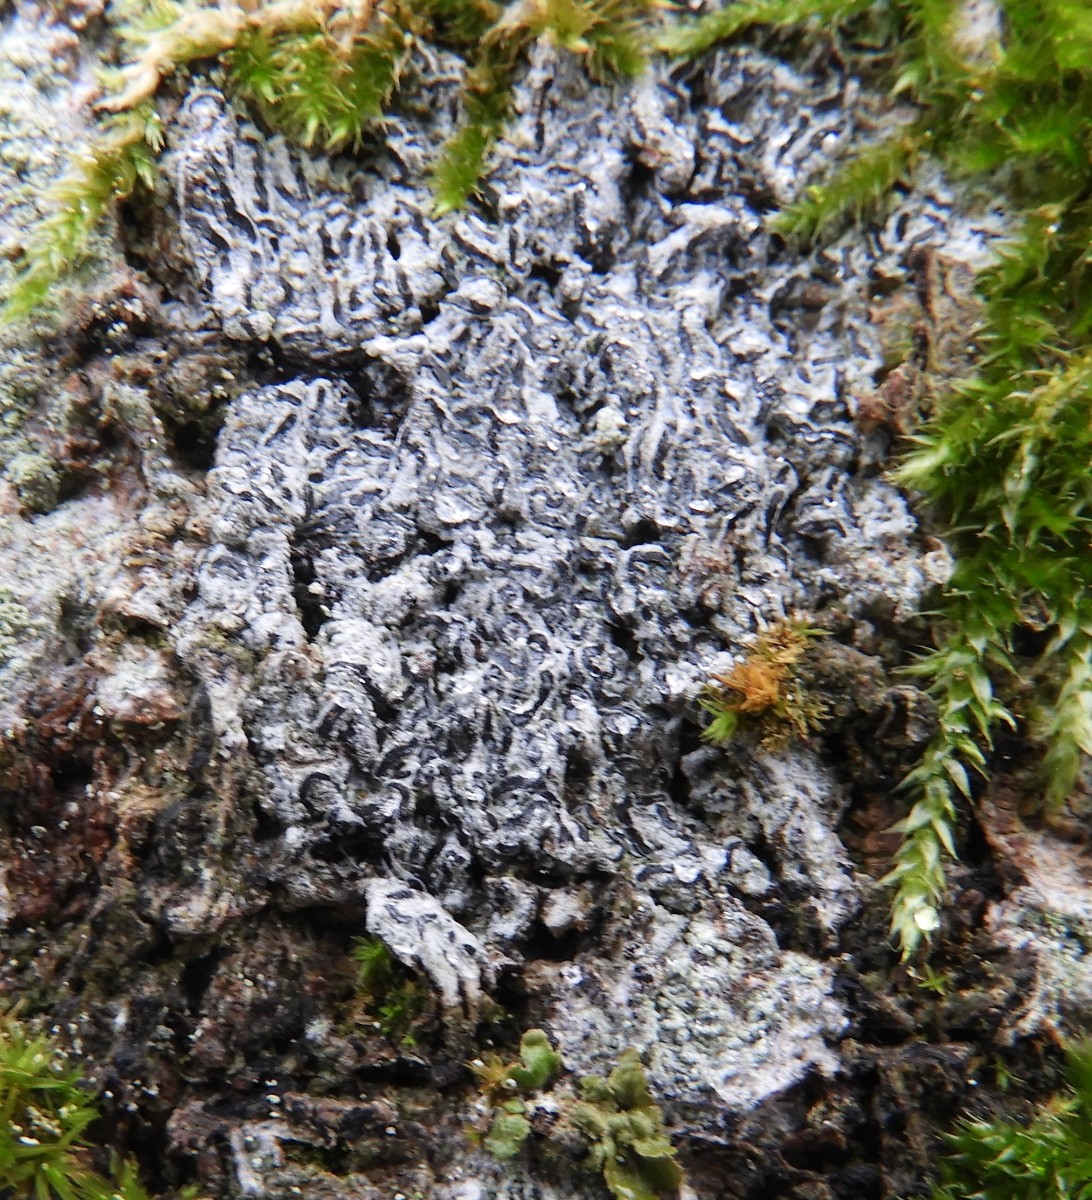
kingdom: Fungi
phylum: Ascomycota
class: Lecanoromycetes
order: Ostropales
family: Graphidaceae
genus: Graphis
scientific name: Graphis scripta
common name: almindelig skriftlav
